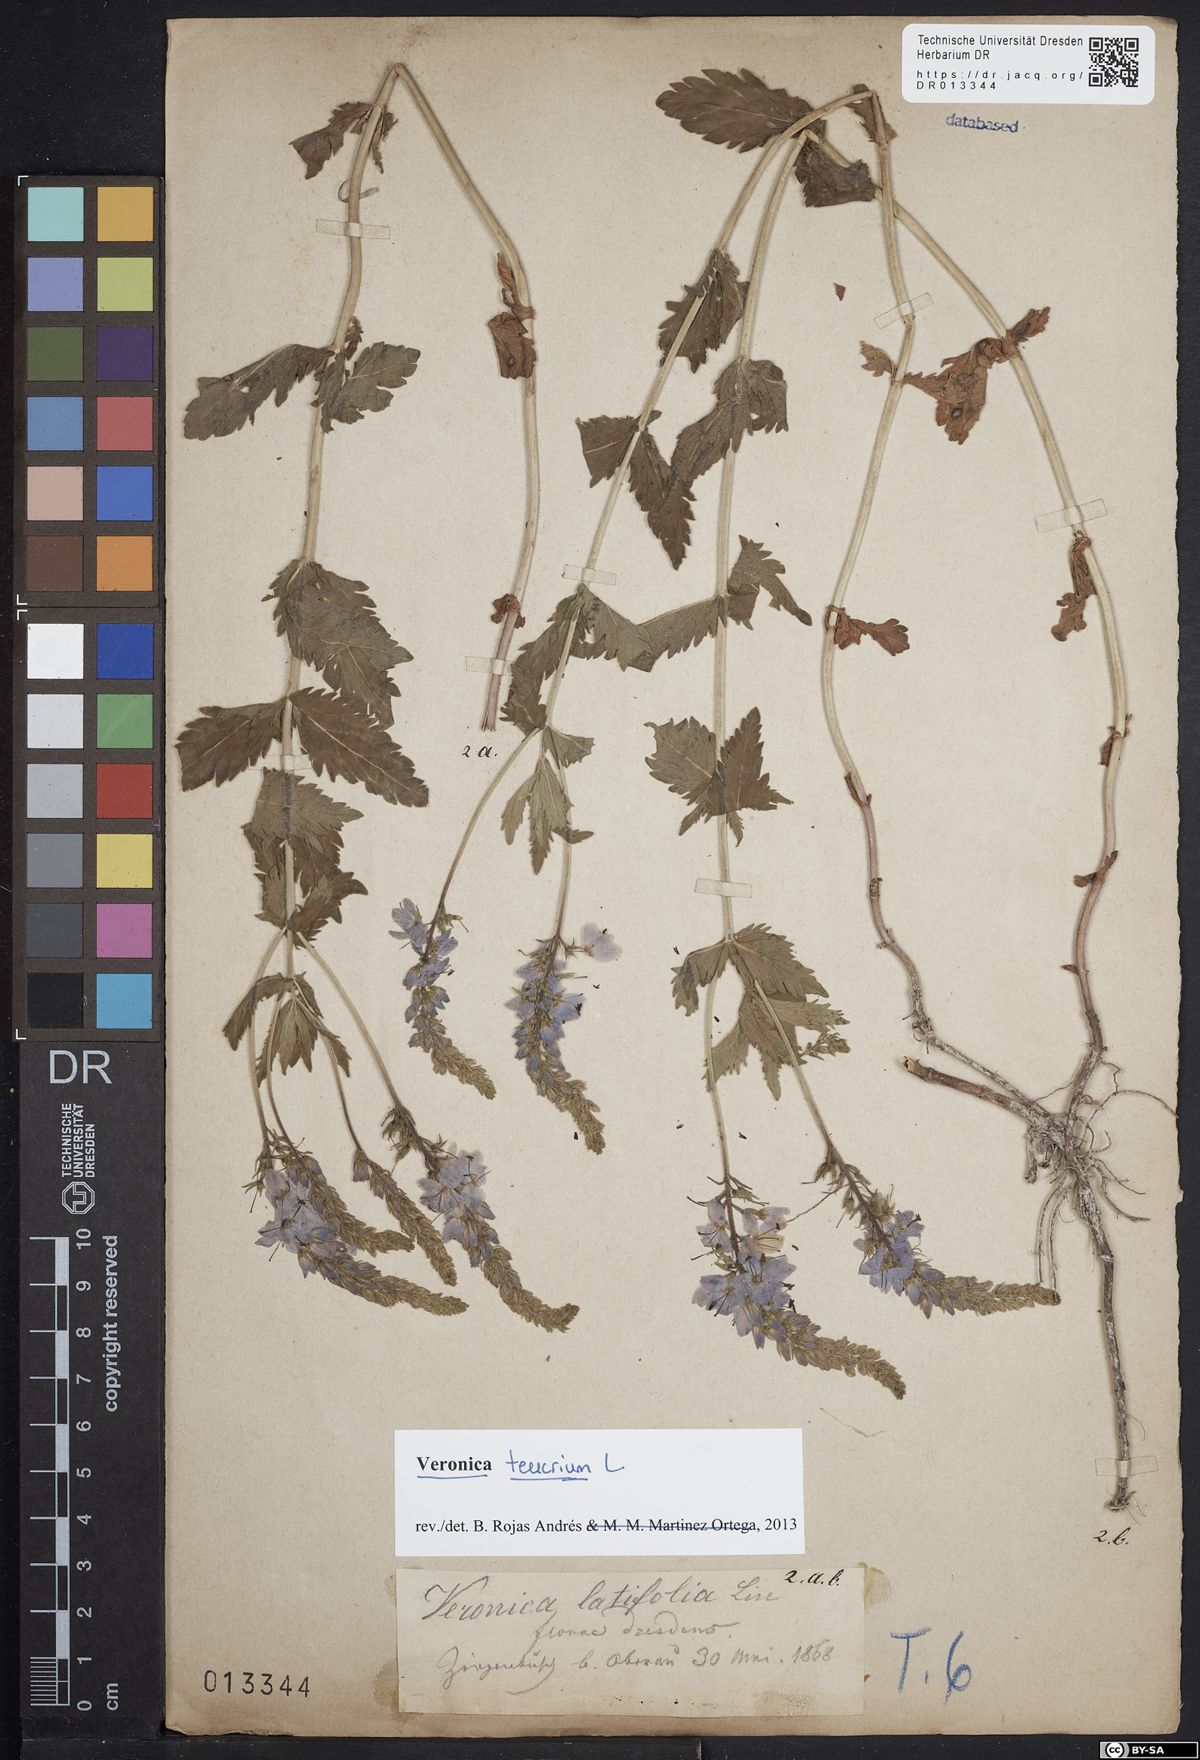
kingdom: Plantae
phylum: Tracheophyta
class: Magnoliopsida
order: Lamiales
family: Plantaginaceae
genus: Veronica
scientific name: Veronica teucrium
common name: Large speedwell
